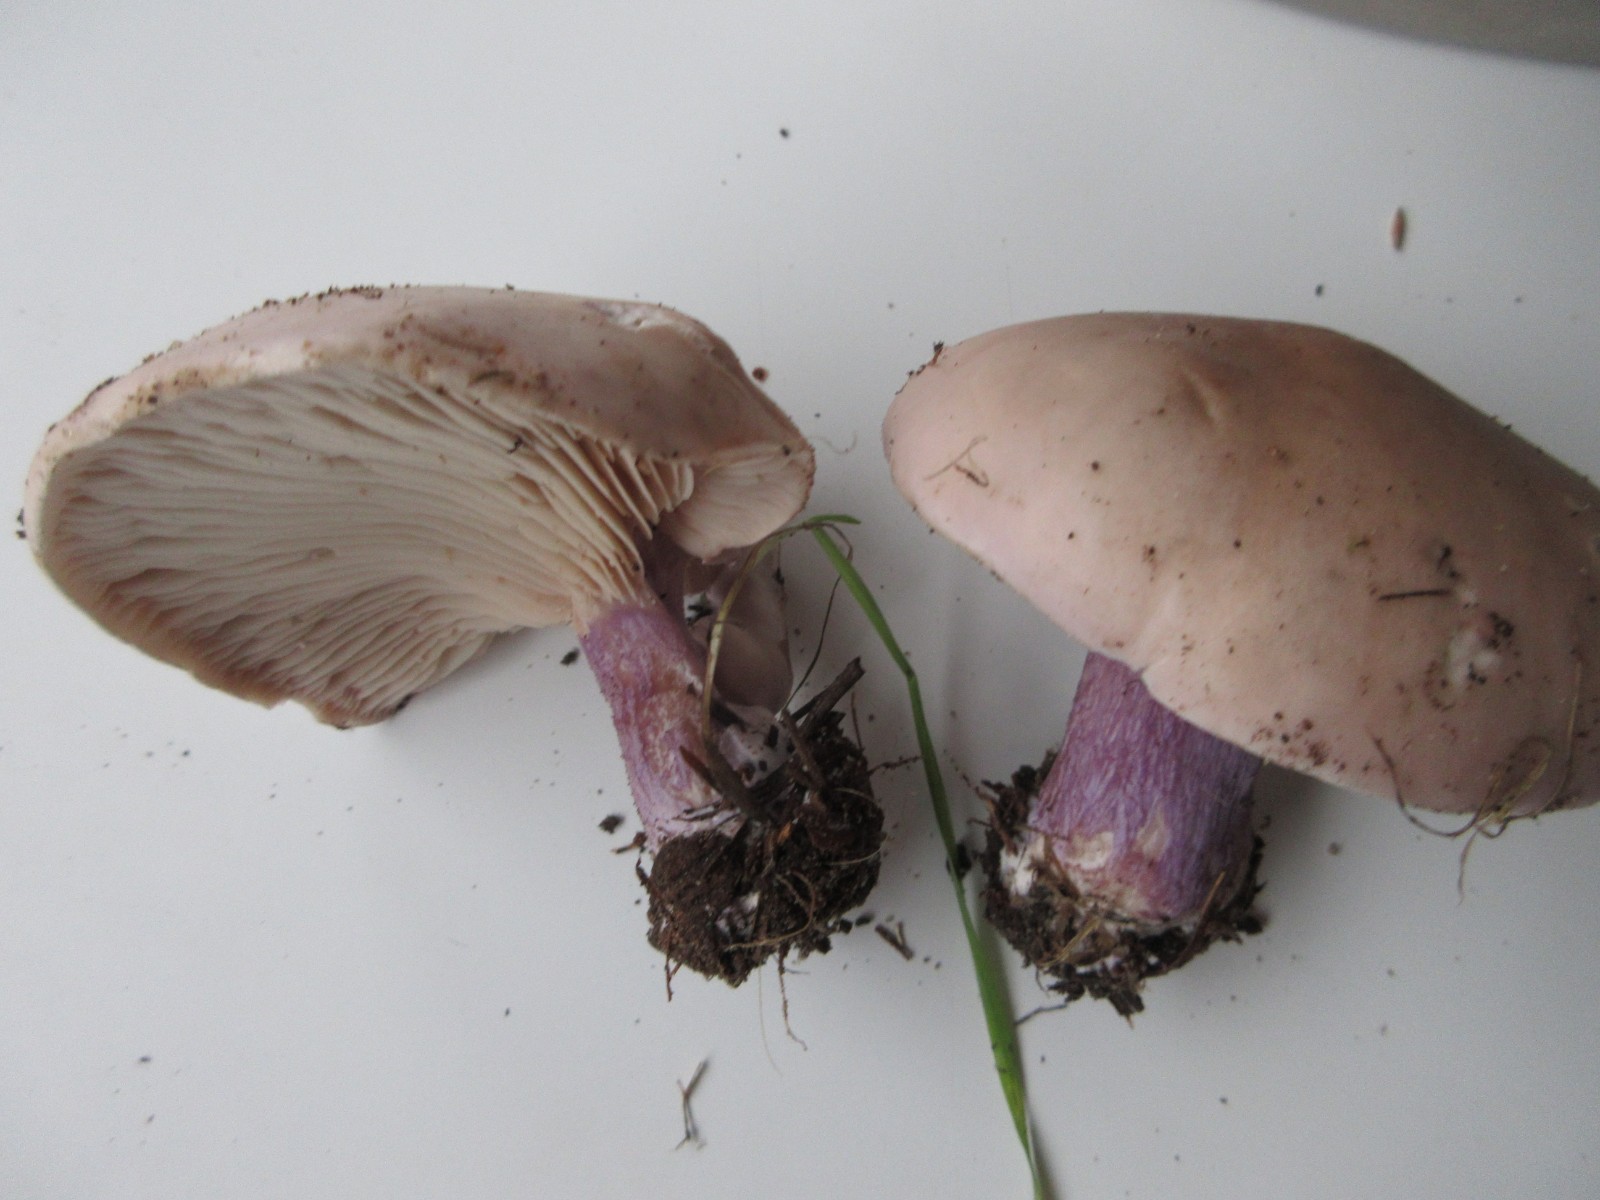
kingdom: Fungi
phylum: Basidiomycota
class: Agaricomycetes
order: Agaricales
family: Tricholomataceae
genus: Lepista
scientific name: Lepista personata
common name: bleg hekseringshat
